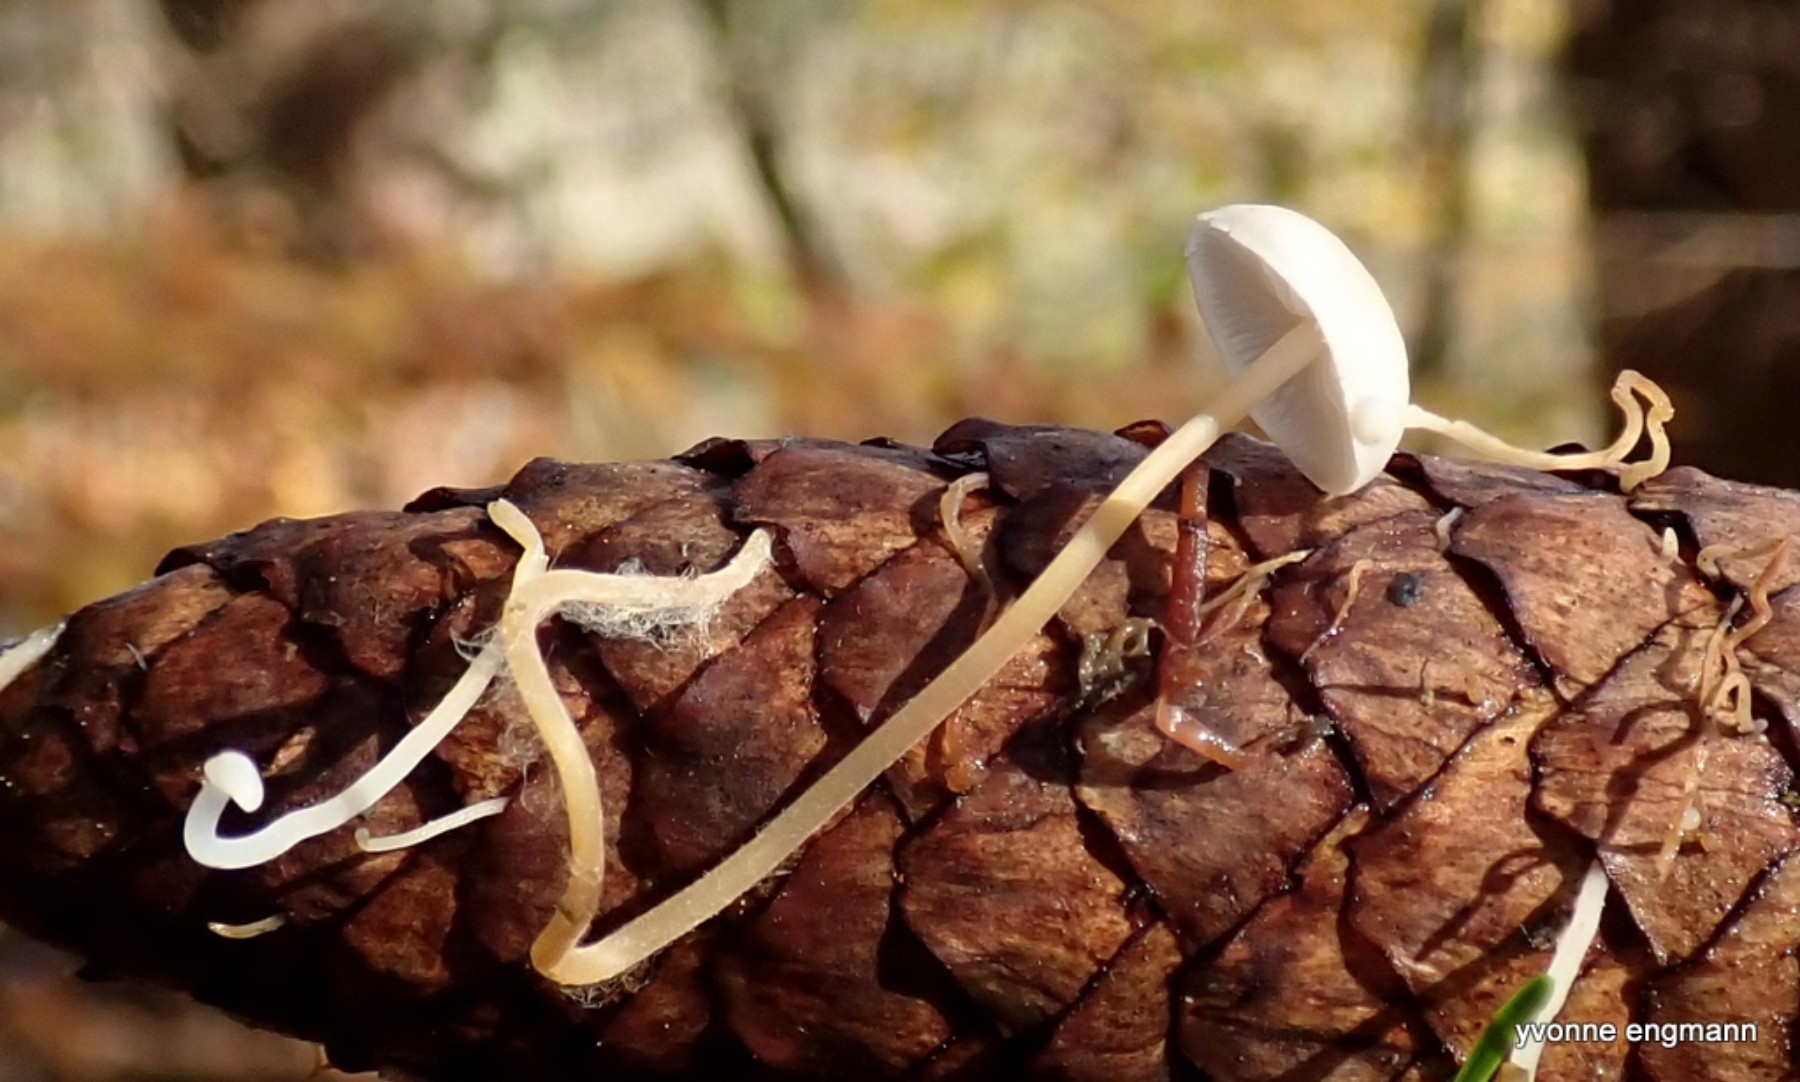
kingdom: Fungi
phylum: Basidiomycota
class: Agaricomycetes
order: Agaricales
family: Physalacriaceae
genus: Strobilurus
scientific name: Strobilurus esculentus
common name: gran-koglehat
